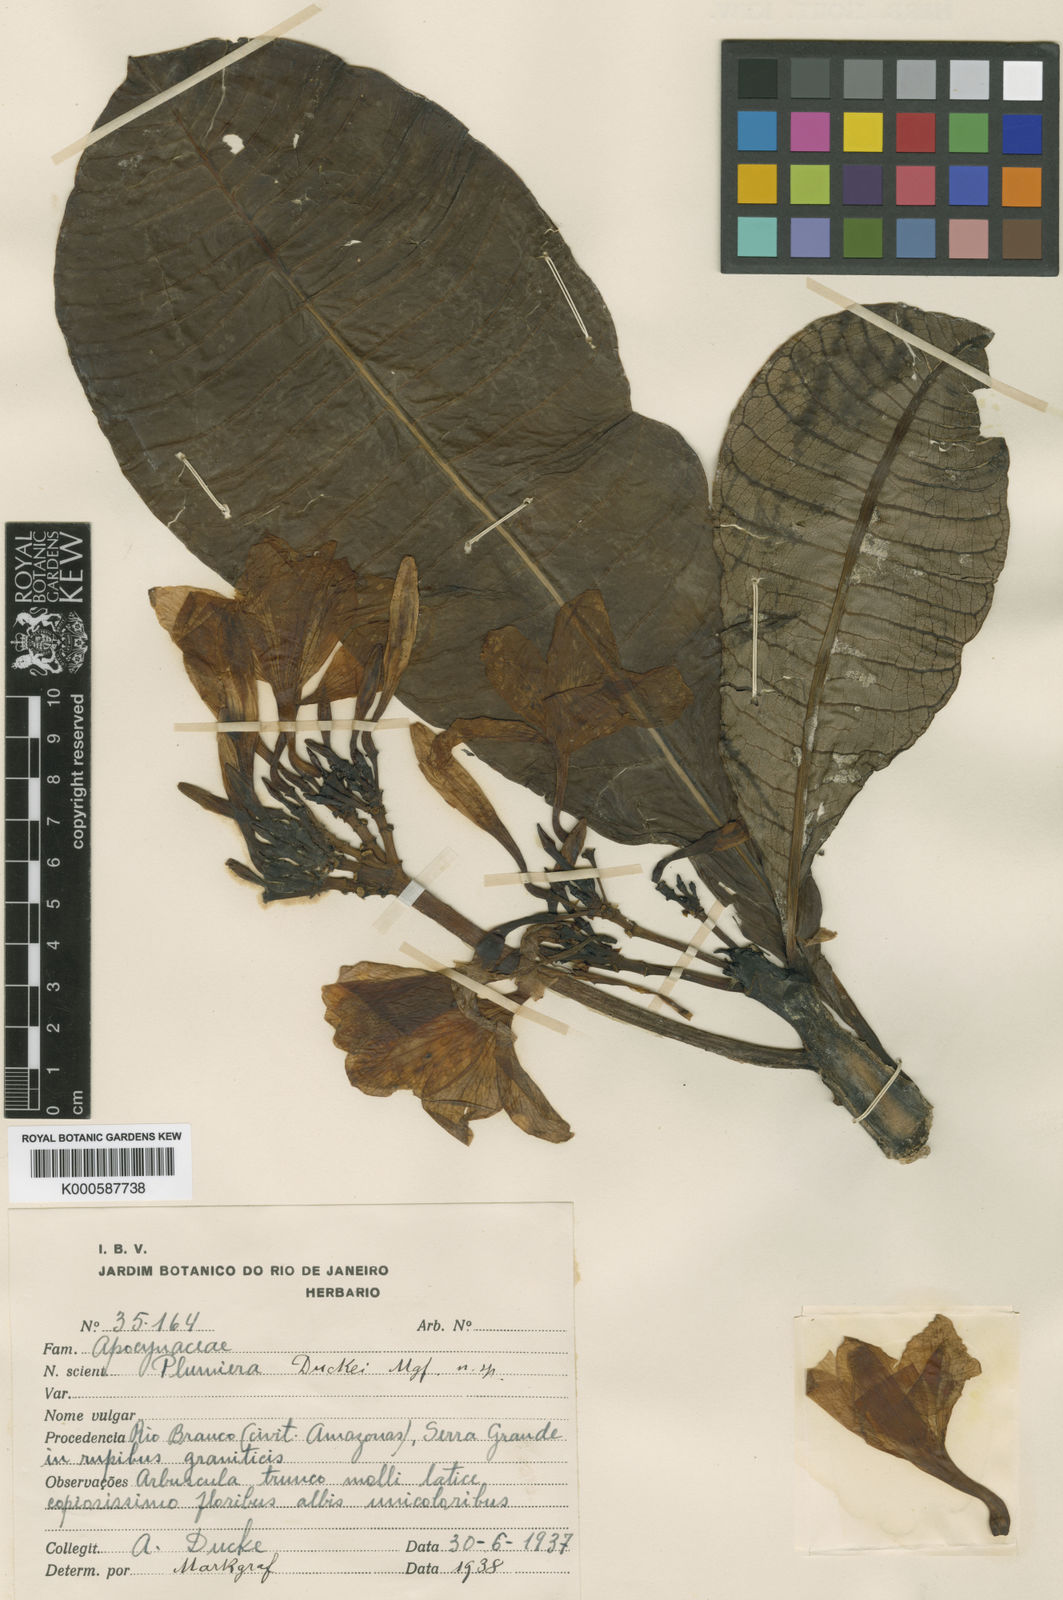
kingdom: Plantae
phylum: Tracheophyta
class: Magnoliopsida
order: Gentianales
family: Apocynaceae
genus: Plumeria
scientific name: Plumeria inodora
